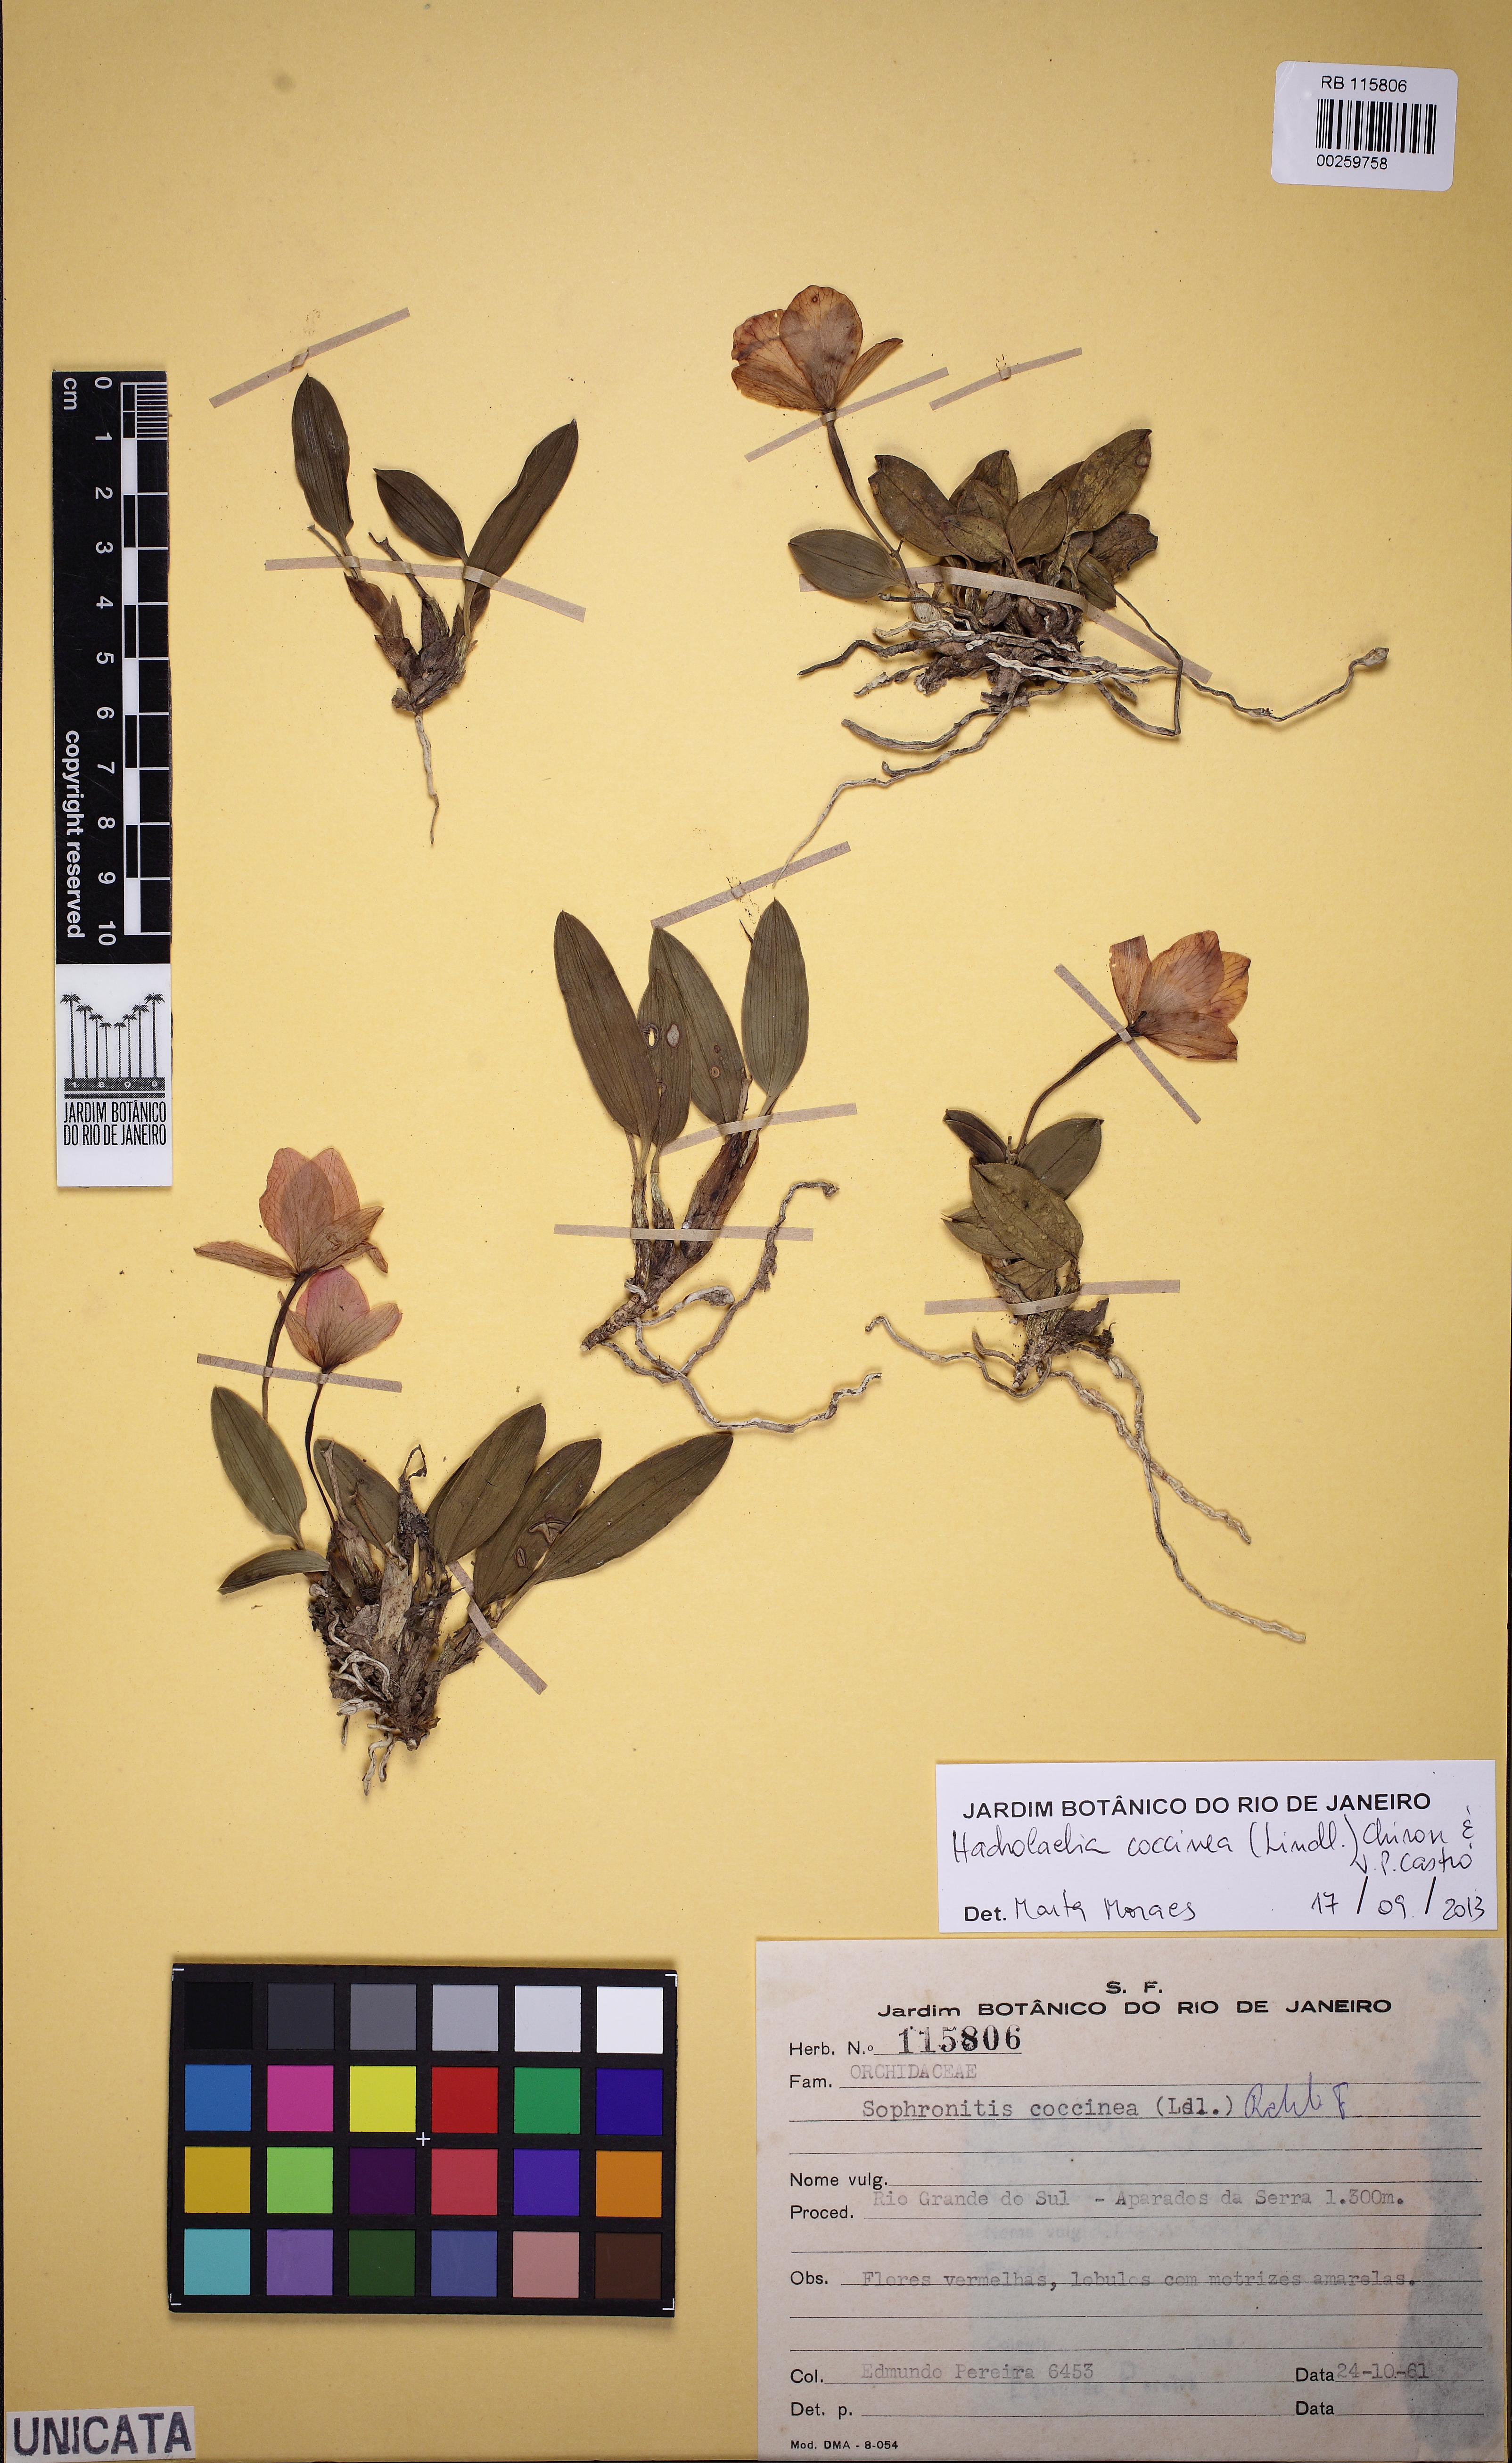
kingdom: Plantae
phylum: Tracheophyta
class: Liliopsida
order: Asparagales
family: Orchidaceae
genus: Cattleya
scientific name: Cattleya coccinea
